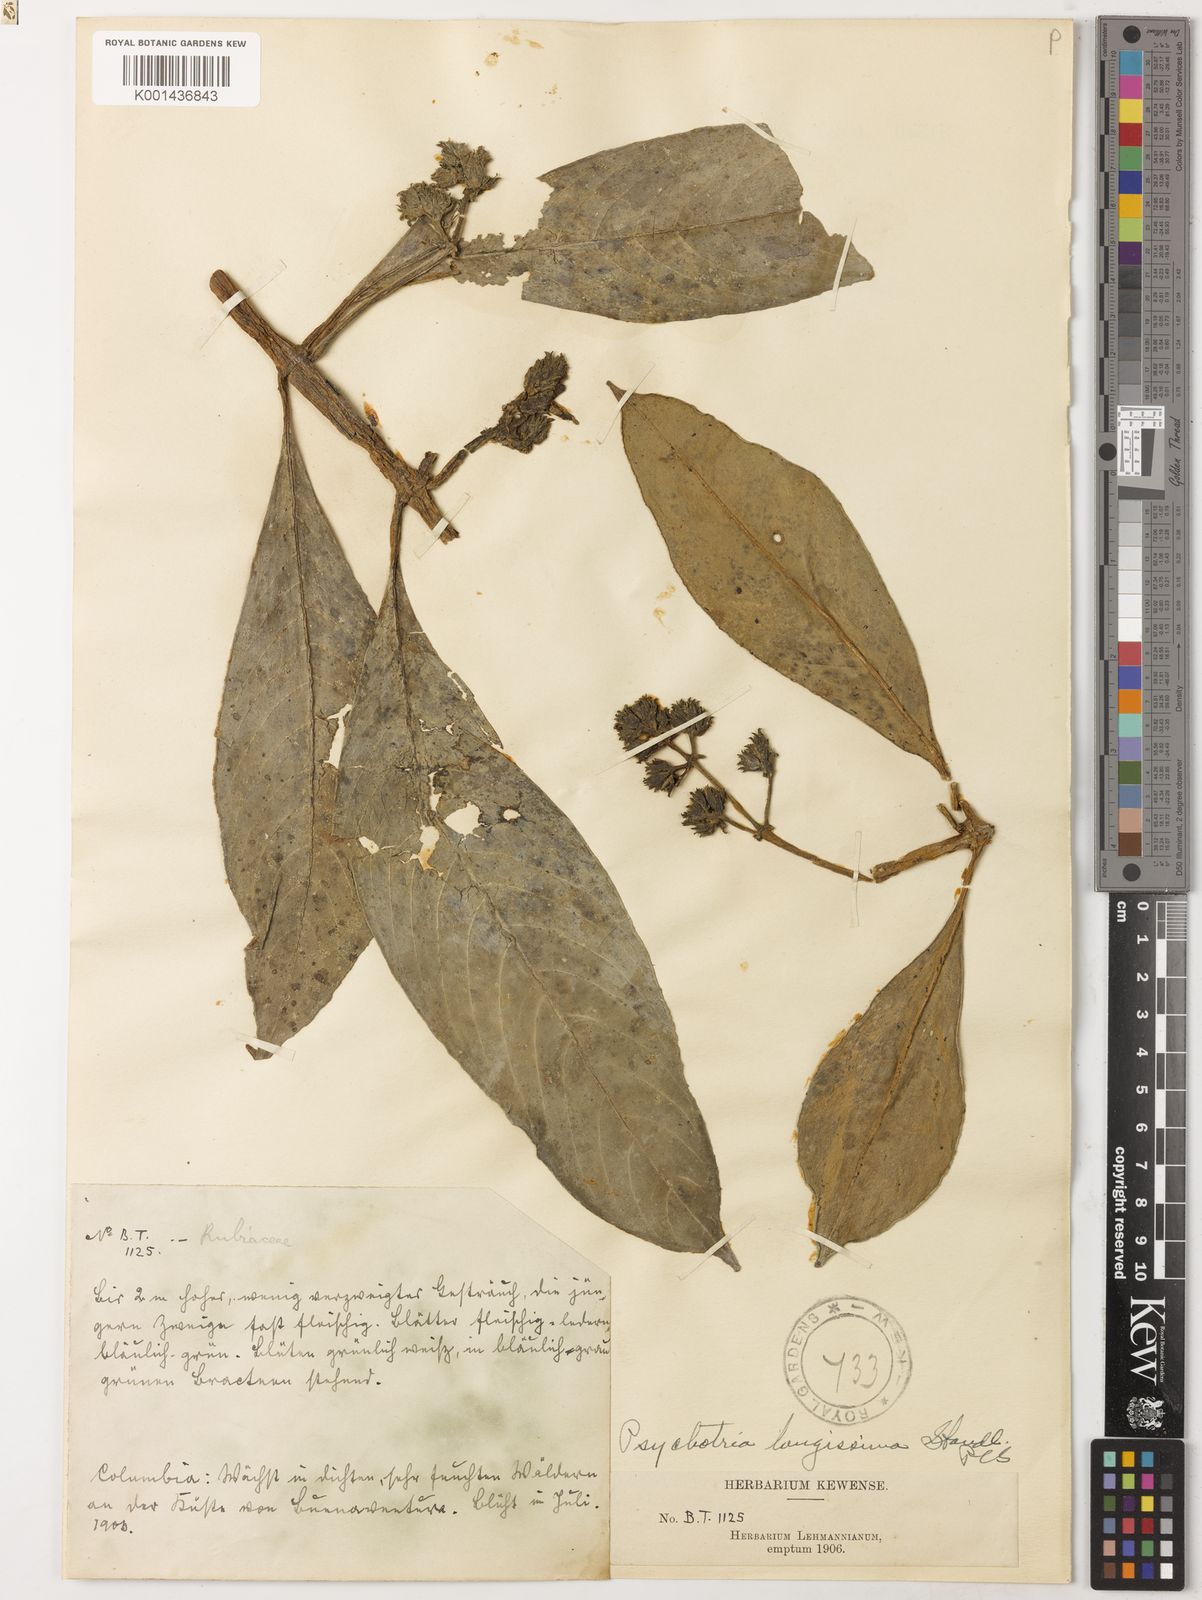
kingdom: Plantae
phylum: Tracheophyta
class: Magnoliopsida
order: Gentianales
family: Rubiaceae
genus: Notopleura
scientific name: Notopleura longissima
